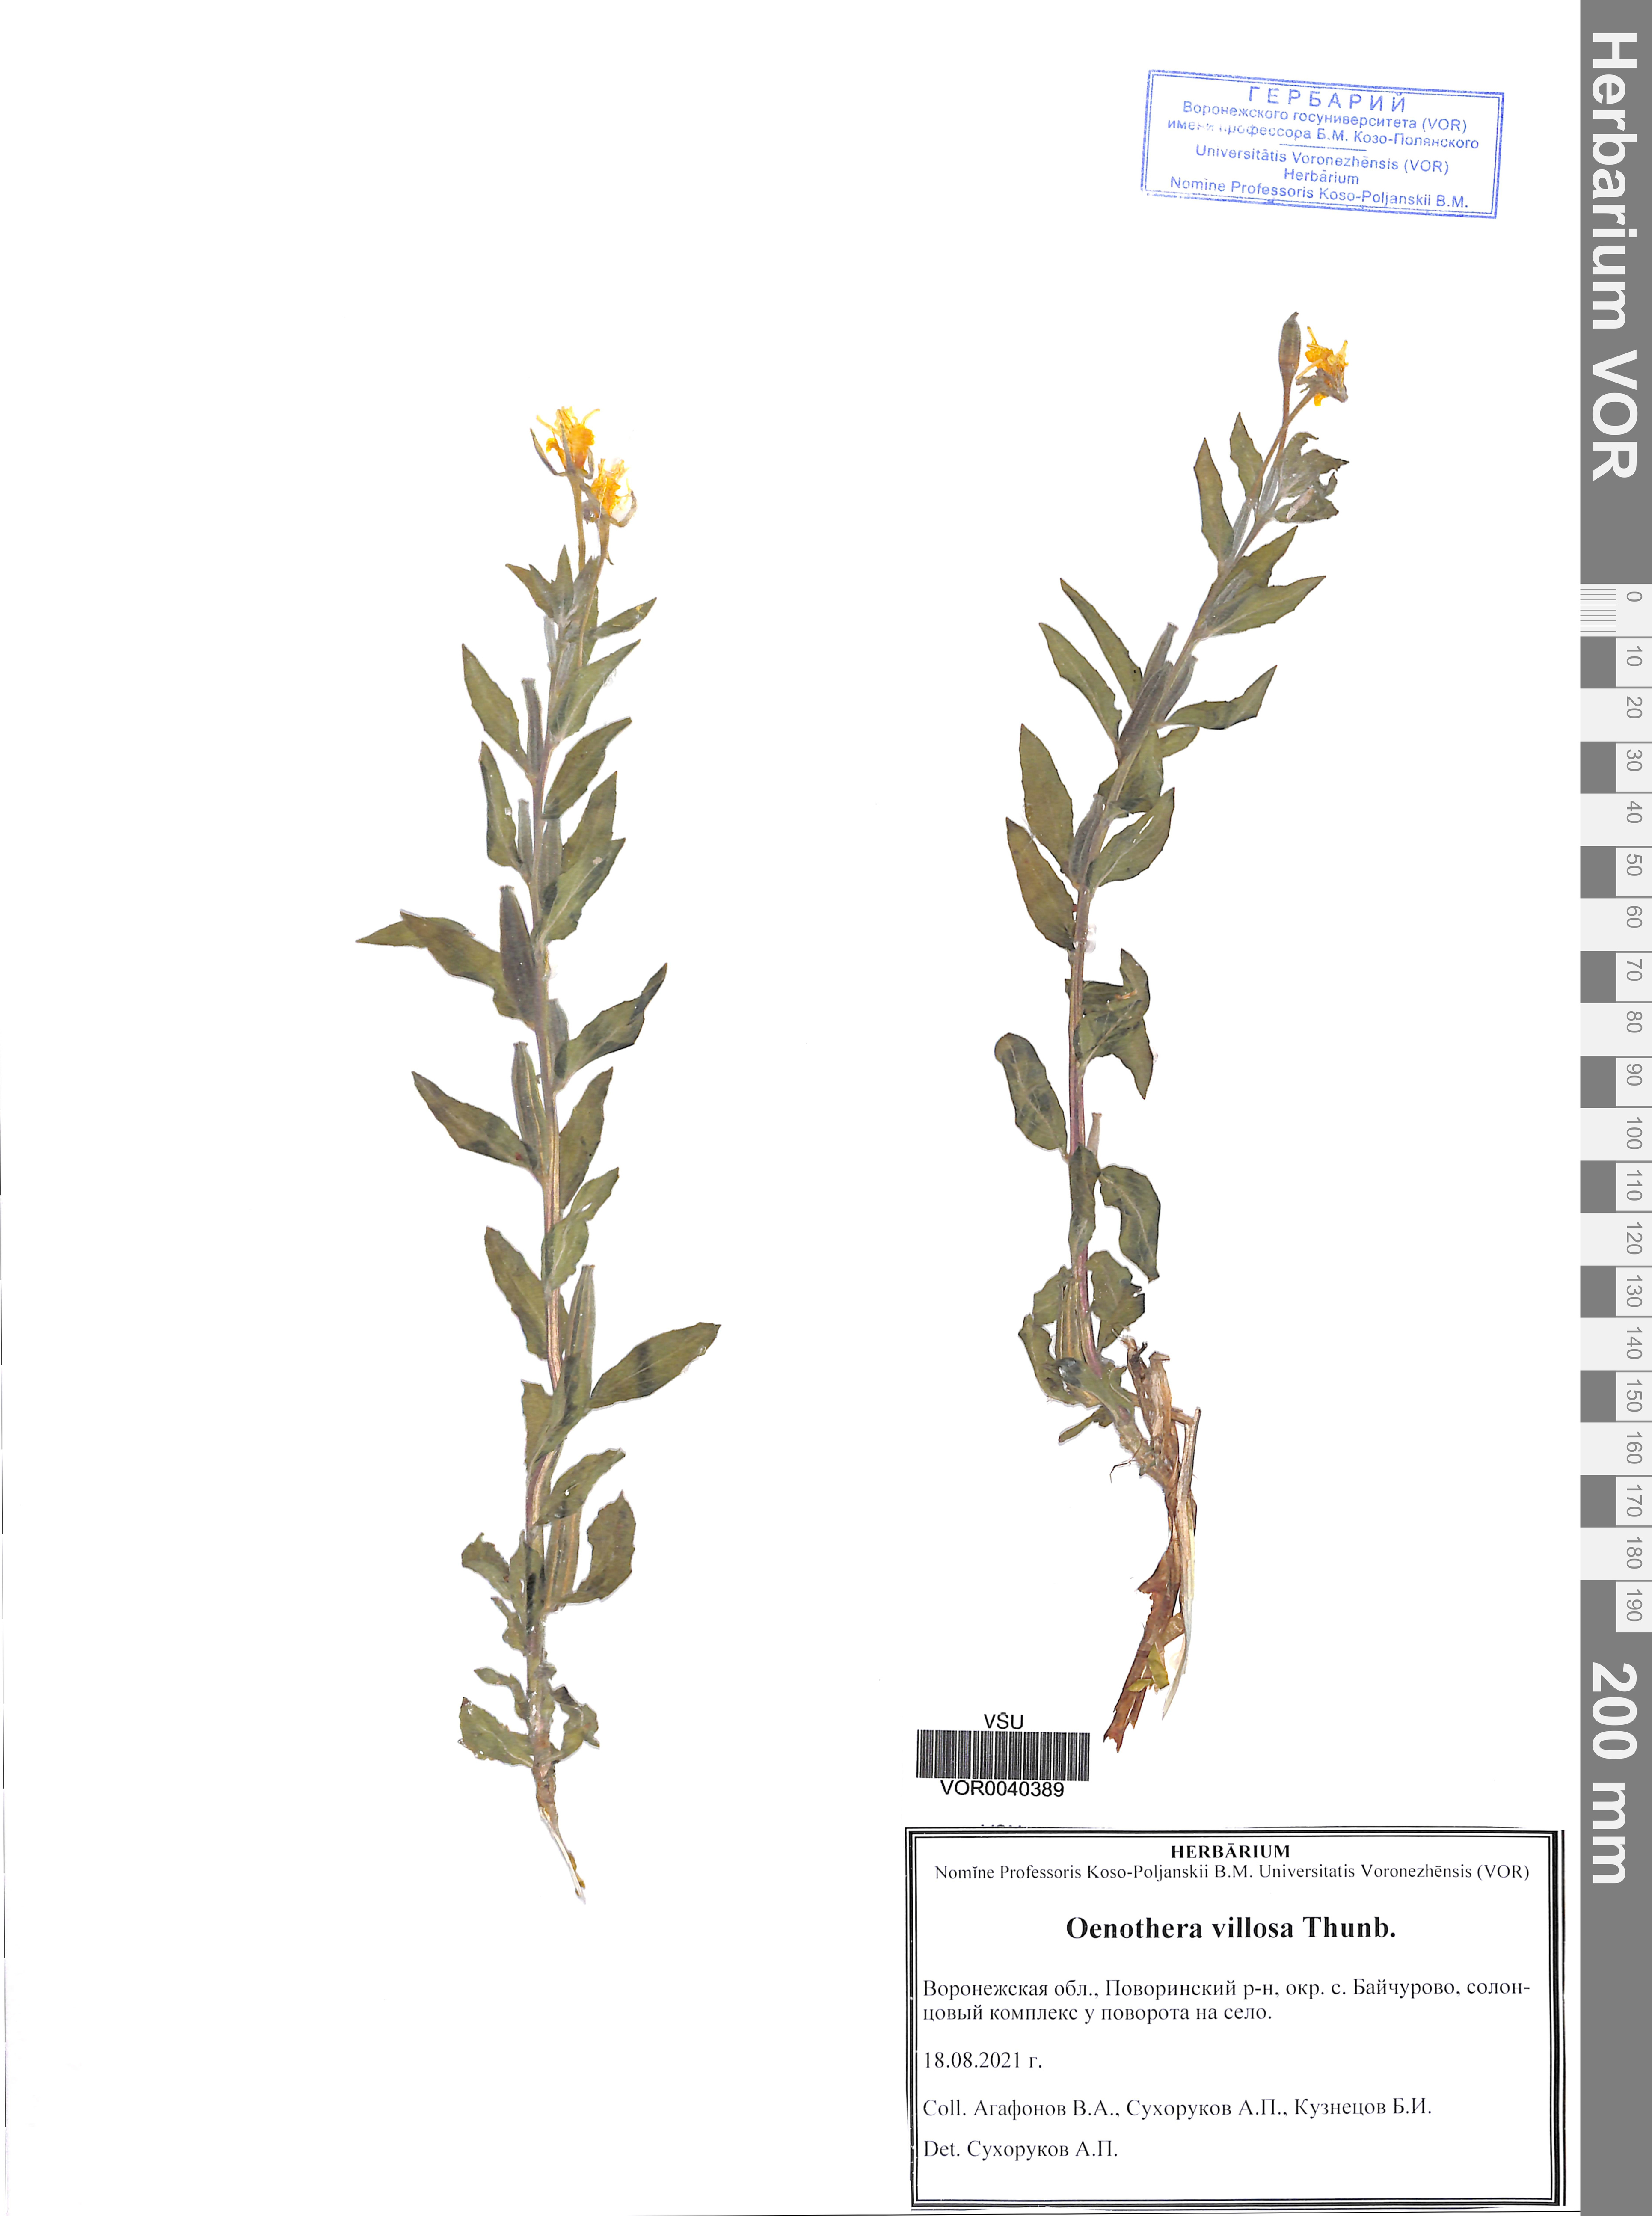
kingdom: Plantae
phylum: Tracheophyta
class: Magnoliopsida
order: Myrtales
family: Onagraceae
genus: Oenothera
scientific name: Oenothera villosa
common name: Hairy evening-primrose
